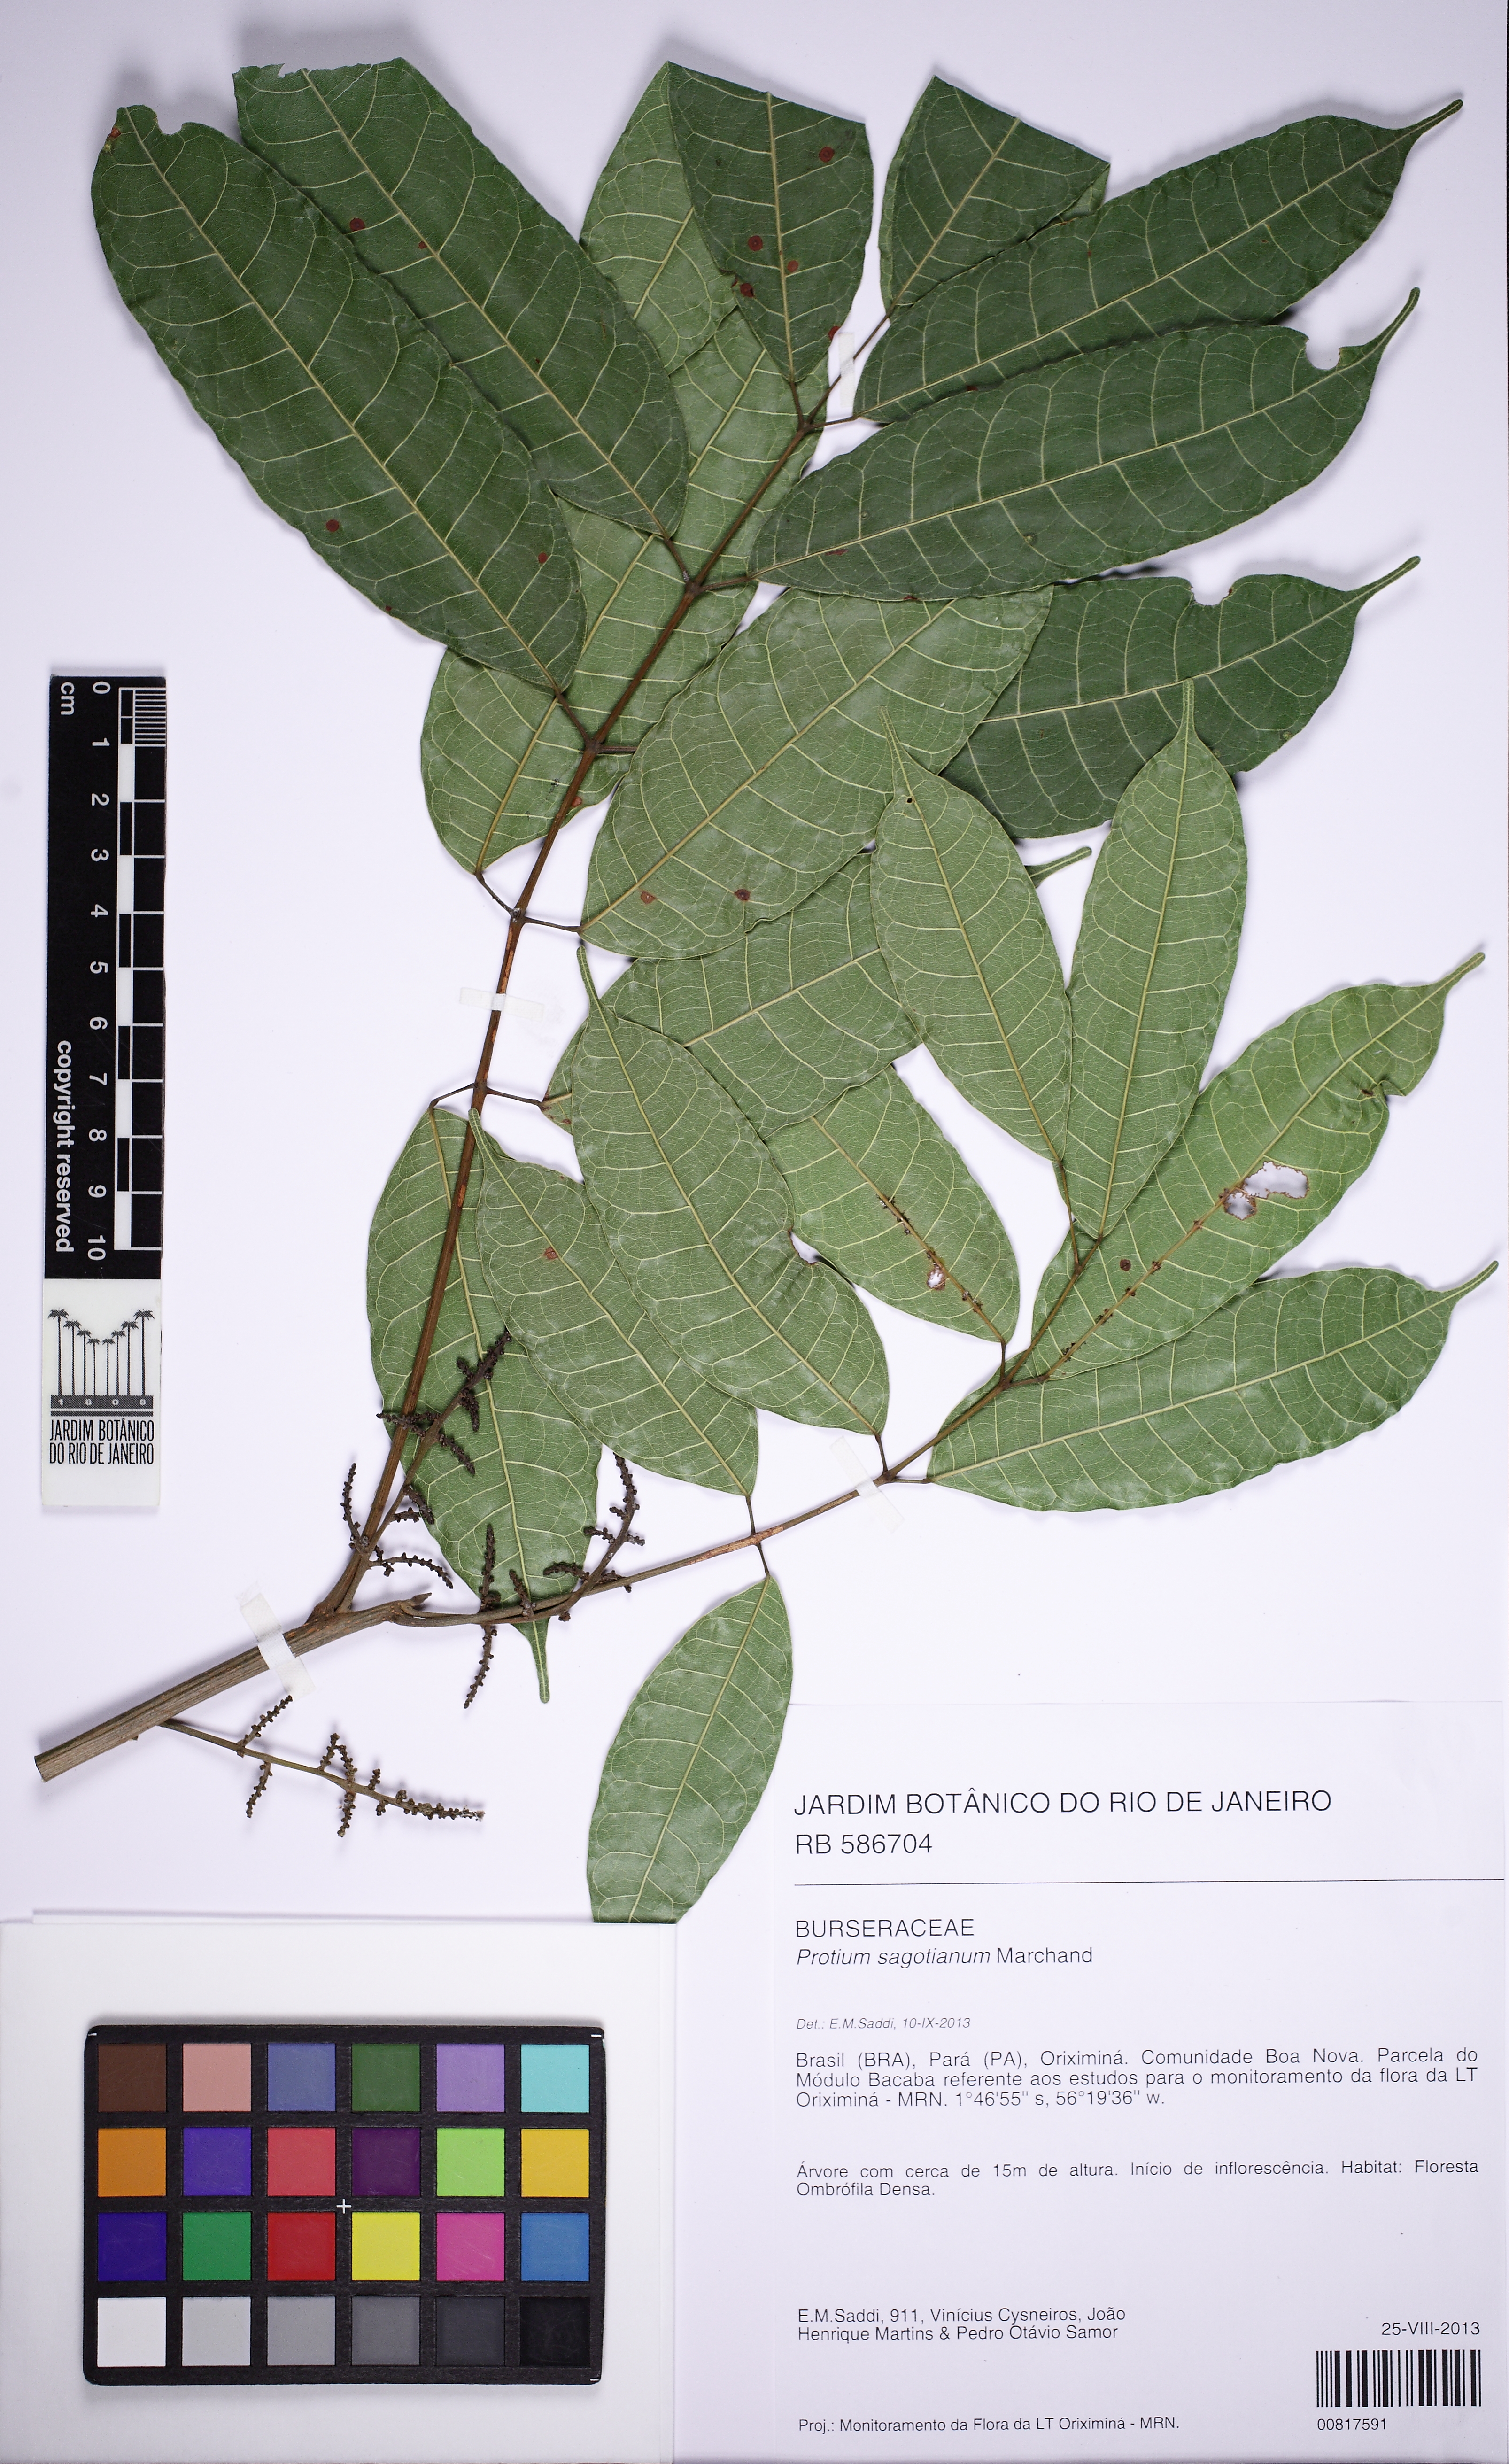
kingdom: Plantae
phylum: Tracheophyta
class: Magnoliopsida
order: Sapindales
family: Burseraceae
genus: Protium
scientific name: Protium sagotianum
